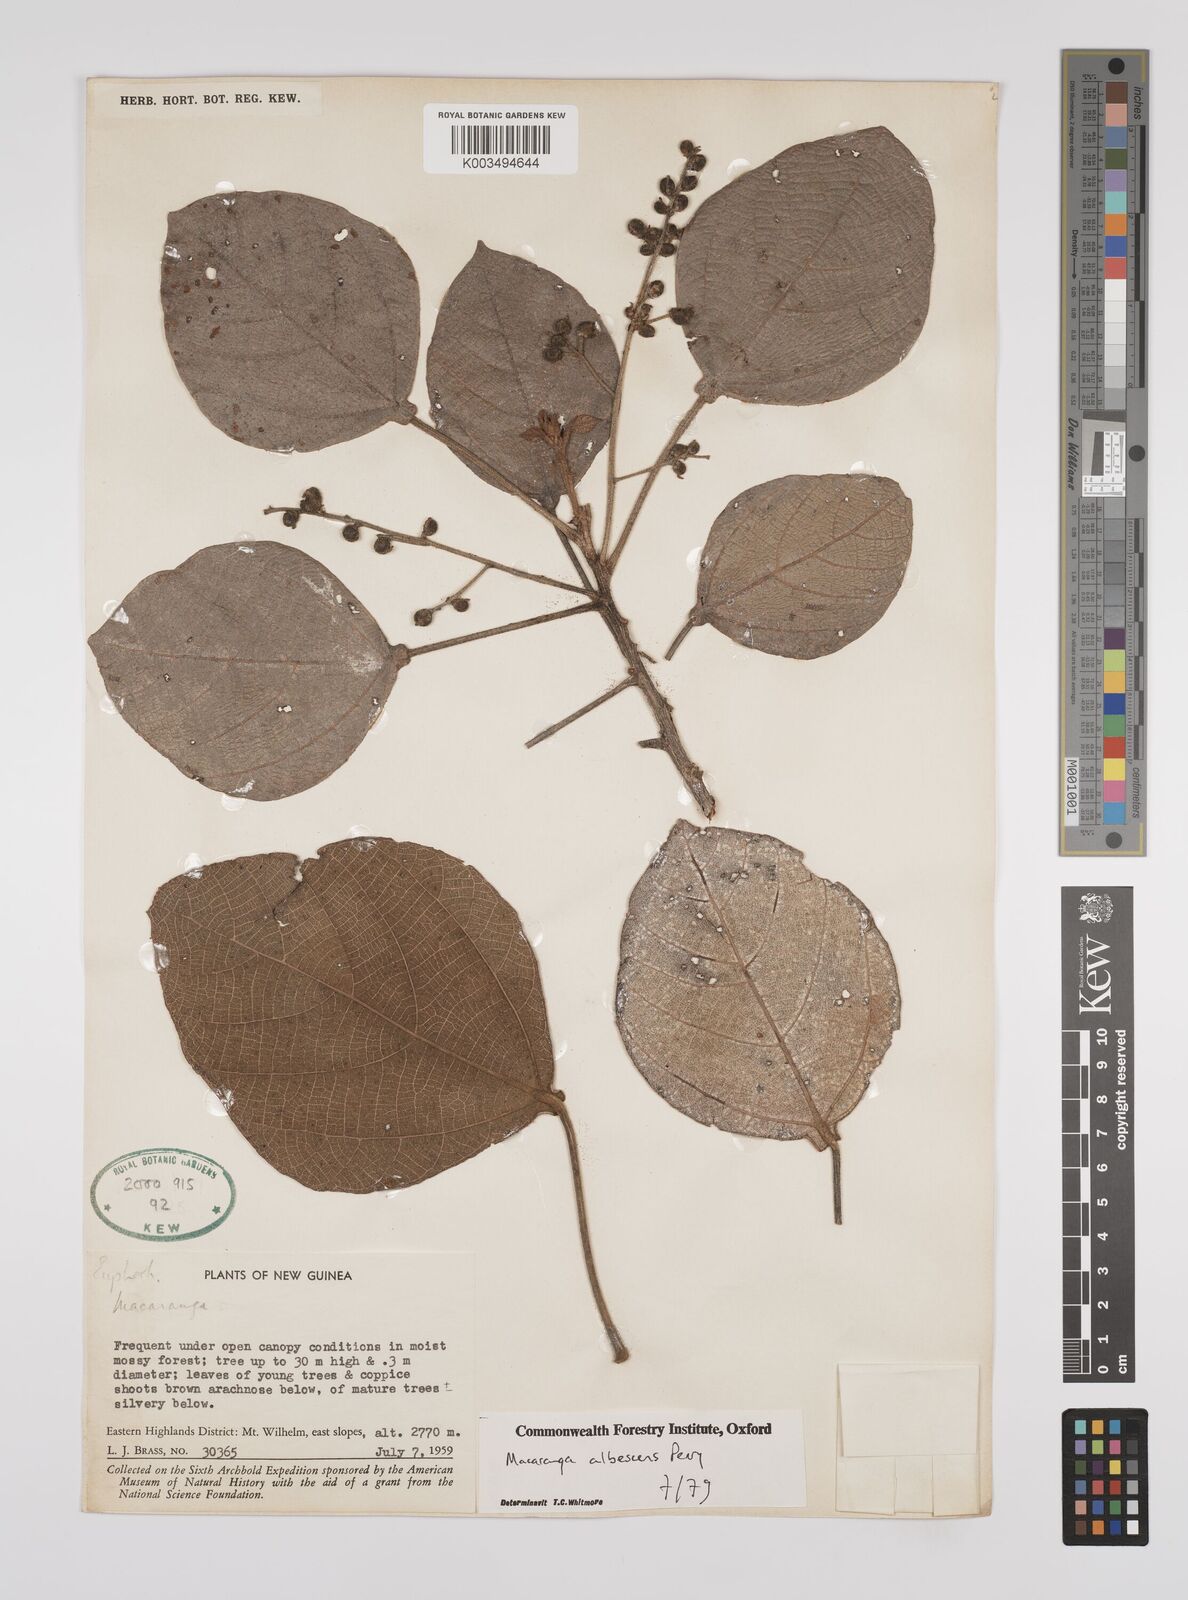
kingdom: Plantae
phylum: Tracheophyta
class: Magnoliopsida
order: Malpighiales
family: Euphorbiaceae
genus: Macaranga
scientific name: Macaranga albescens
